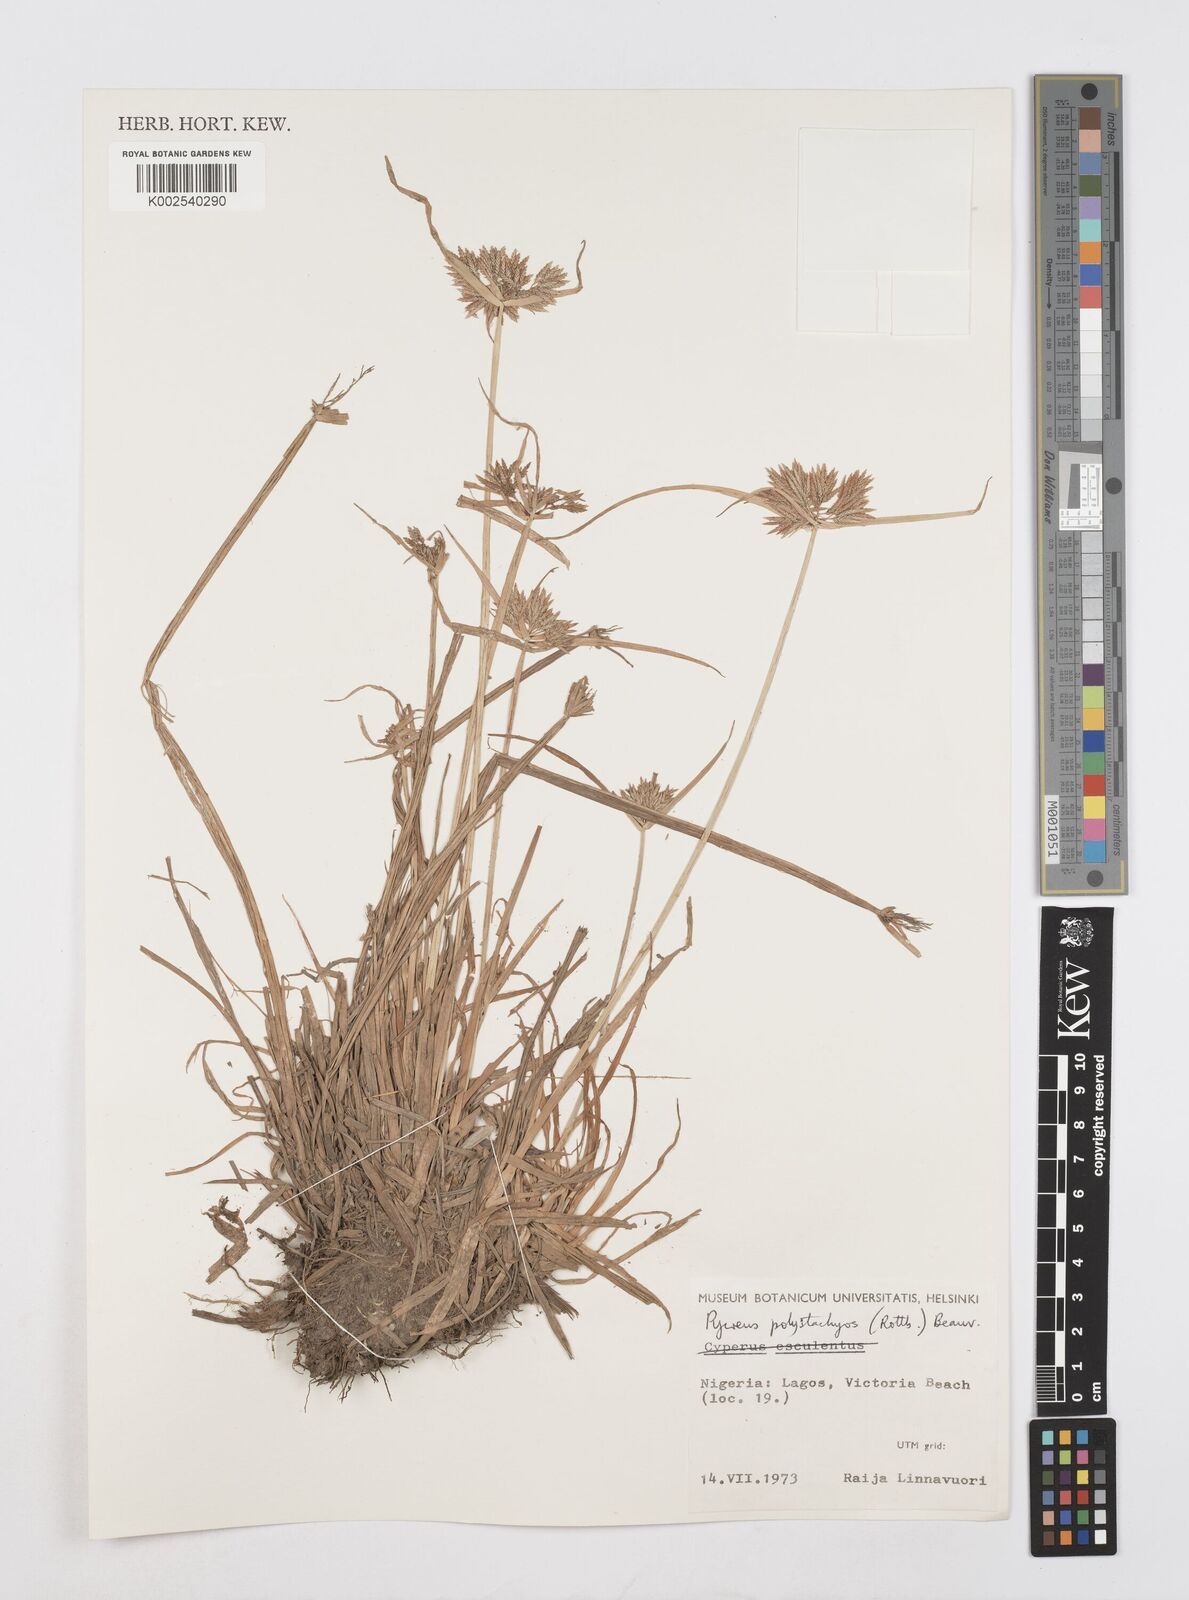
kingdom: Plantae
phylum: Tracheophyta
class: Liliopsida
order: Poales
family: Cyperaceae
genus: Cyperus
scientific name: Cyperus polystachyos
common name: Bunchy flat sedge
